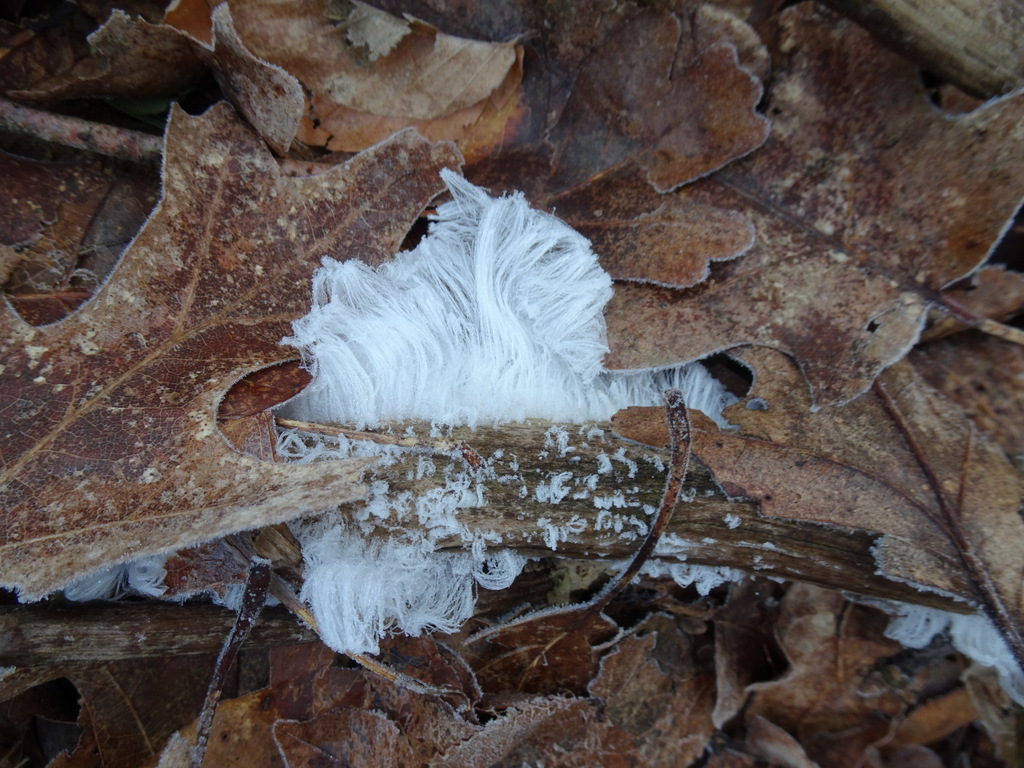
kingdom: Fungi
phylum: Basidiomycota
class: Tremellomycetes
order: Tremellales
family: Exidiaceae
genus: Exidiopsis
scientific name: Exidiopsis effusa
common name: smuk bævrehinde
